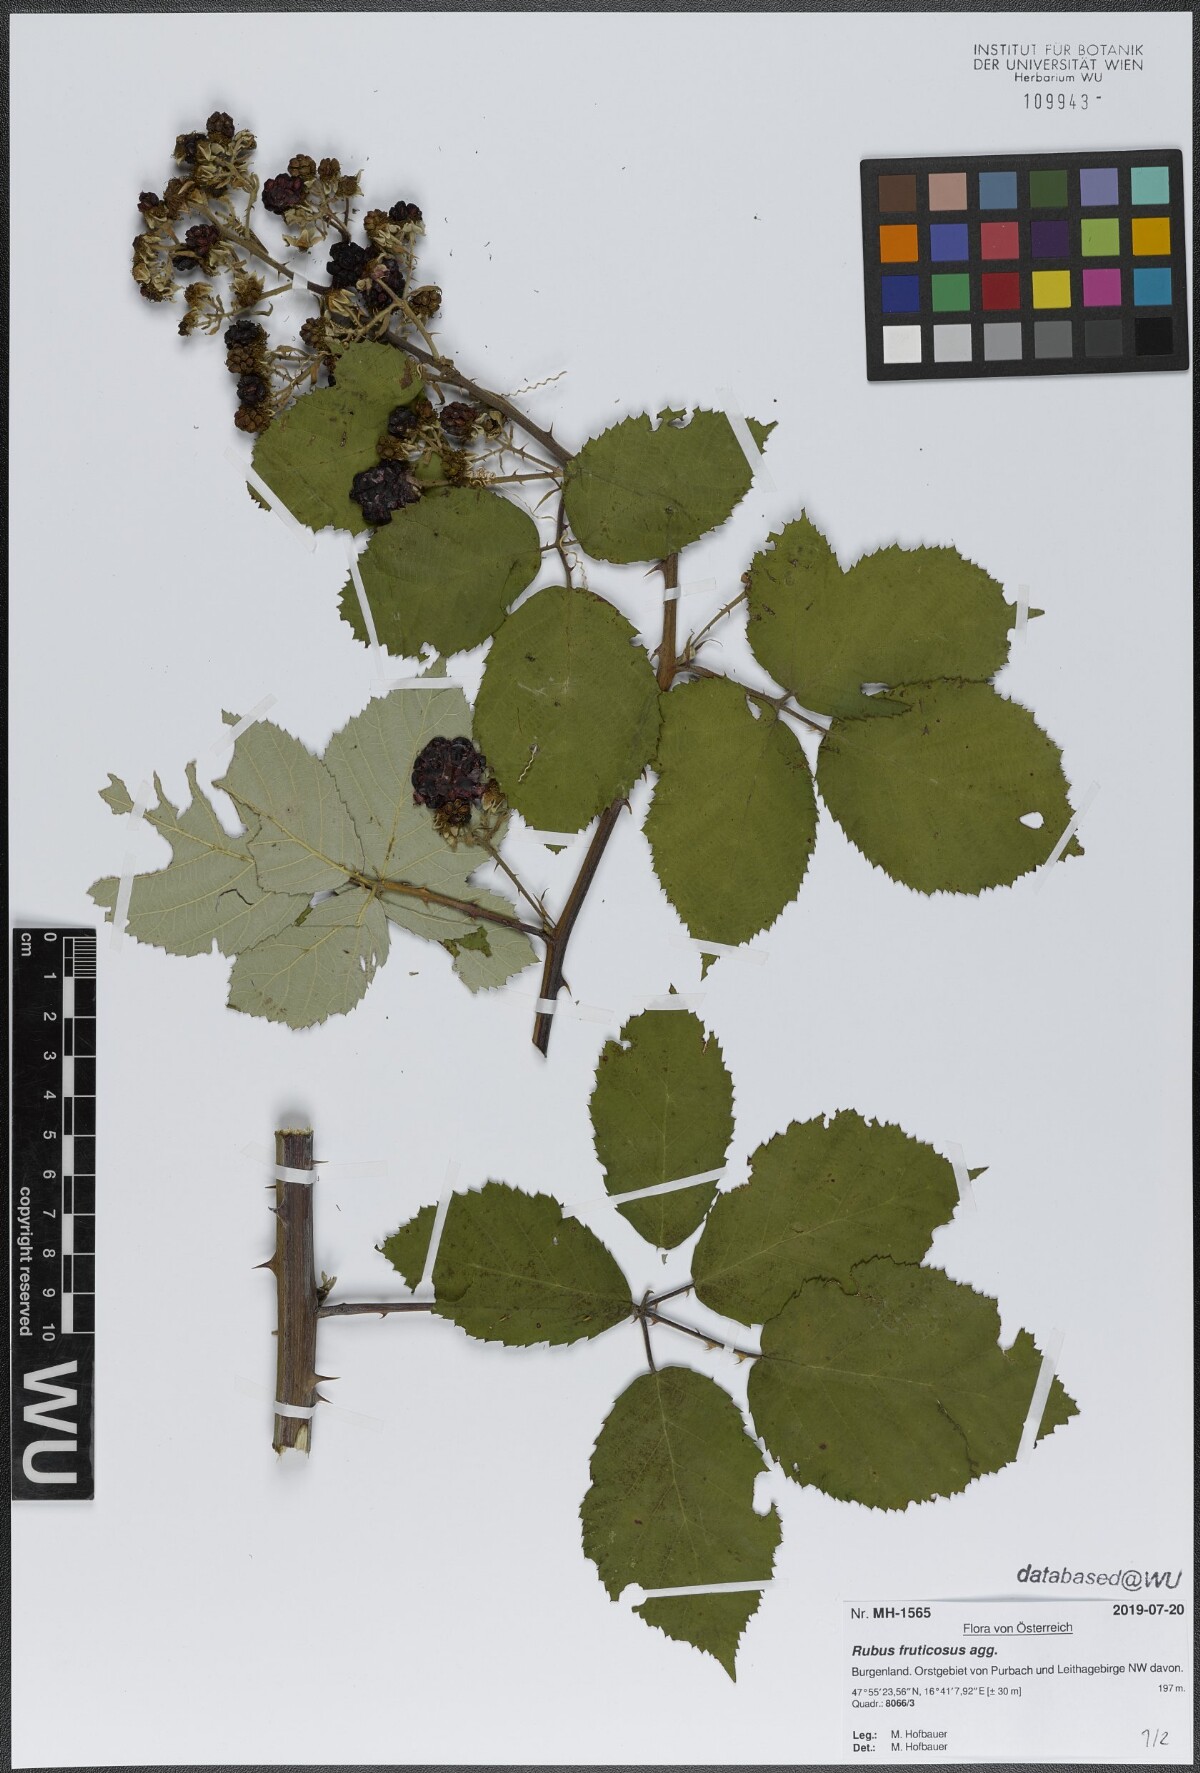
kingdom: Plantae
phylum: Tracheophyta
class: Magnoliopsida
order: Rosales
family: Rosaceae
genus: Rubus
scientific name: Rubus fruticosus
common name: Blackberry, bramble
